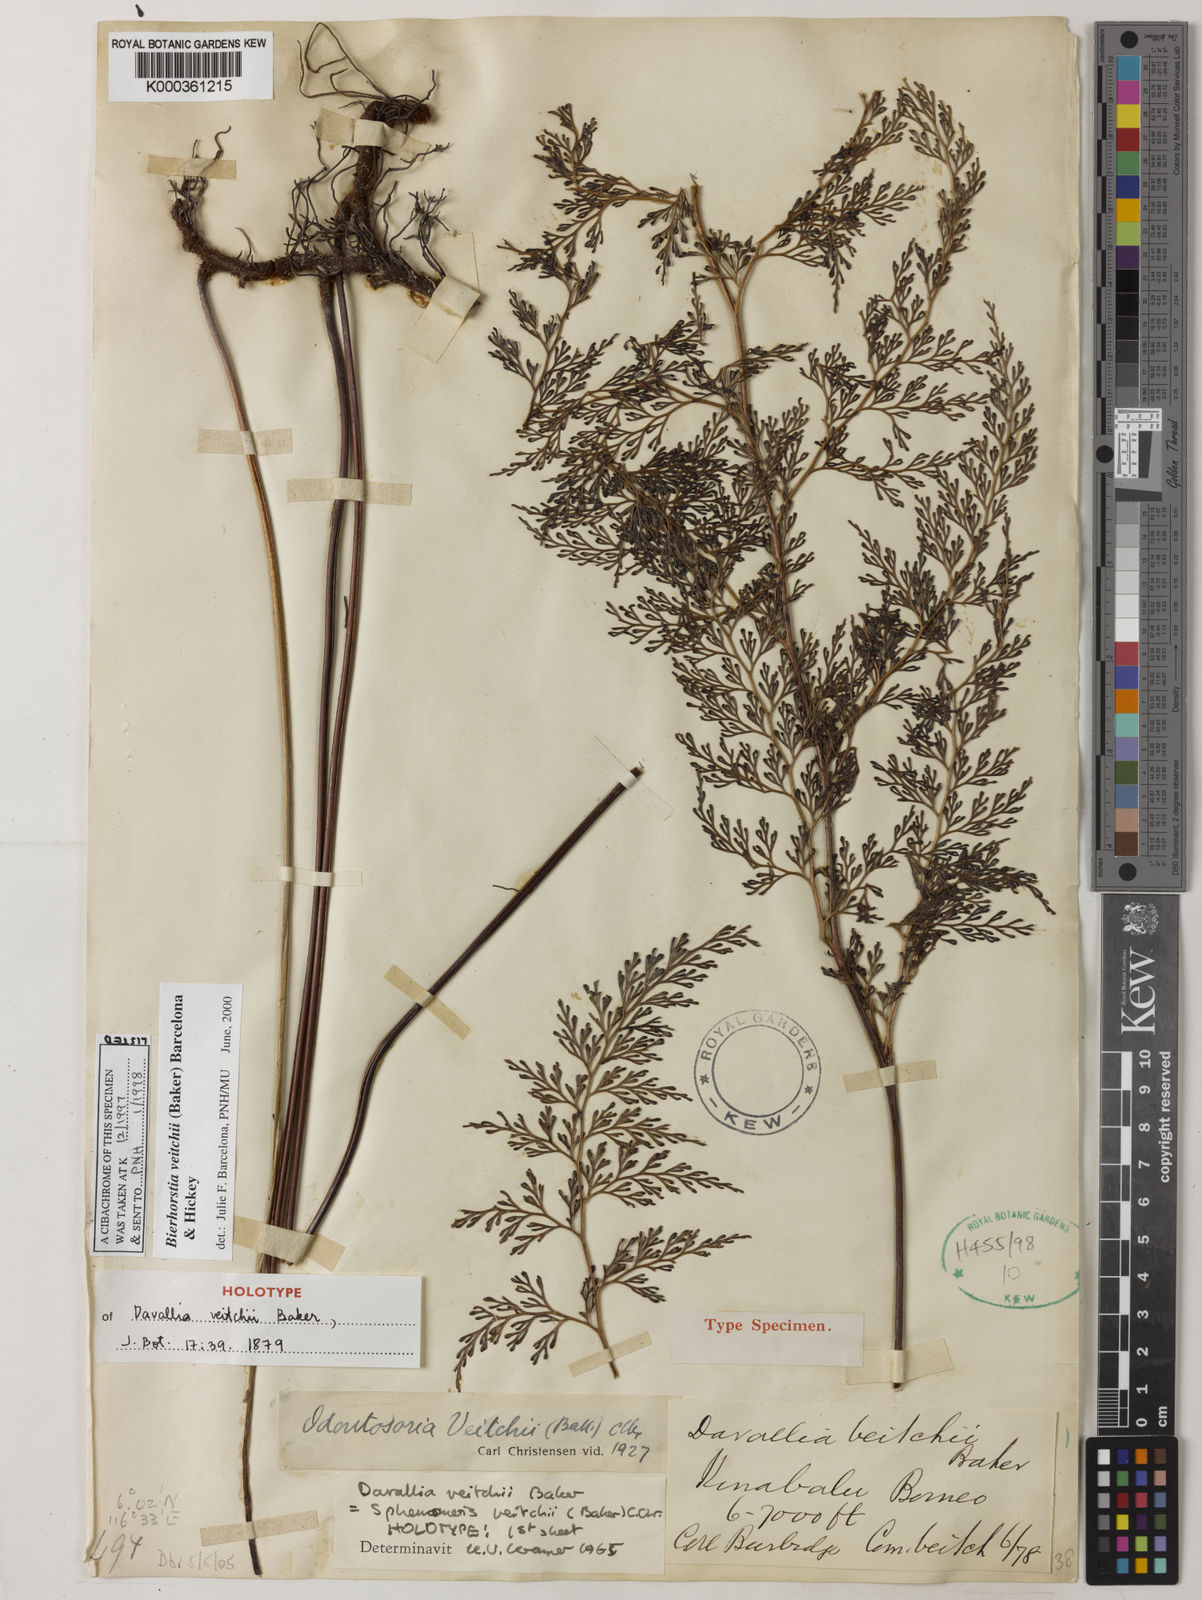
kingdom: Plantae
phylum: Tracheophyta
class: Polypodiopsida
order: Polypodiales
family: Lindsaeaceae
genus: Odontosoria
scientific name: Odontosoria veitchii
